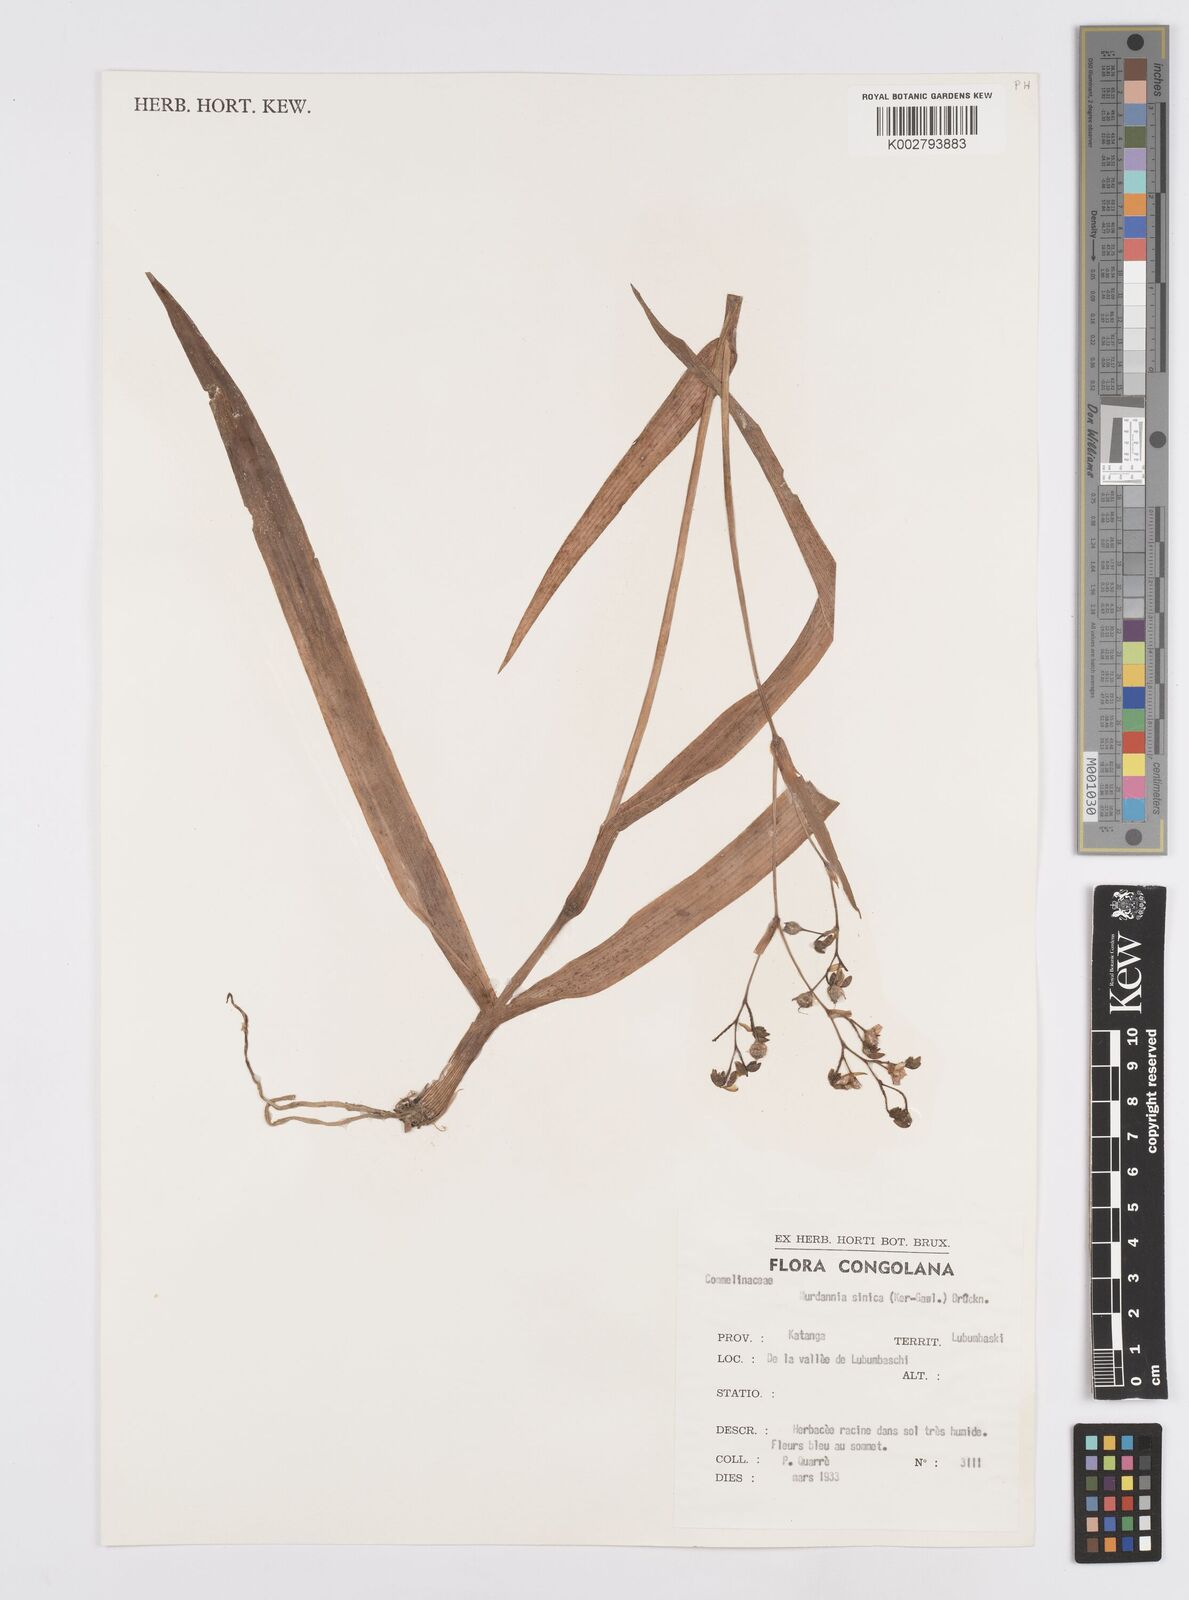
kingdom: Plantae
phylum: Tracheophyta
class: Liliopsida
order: Commelinales
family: Commelinaceae
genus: Murdannia
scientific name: Murdannia simplex
